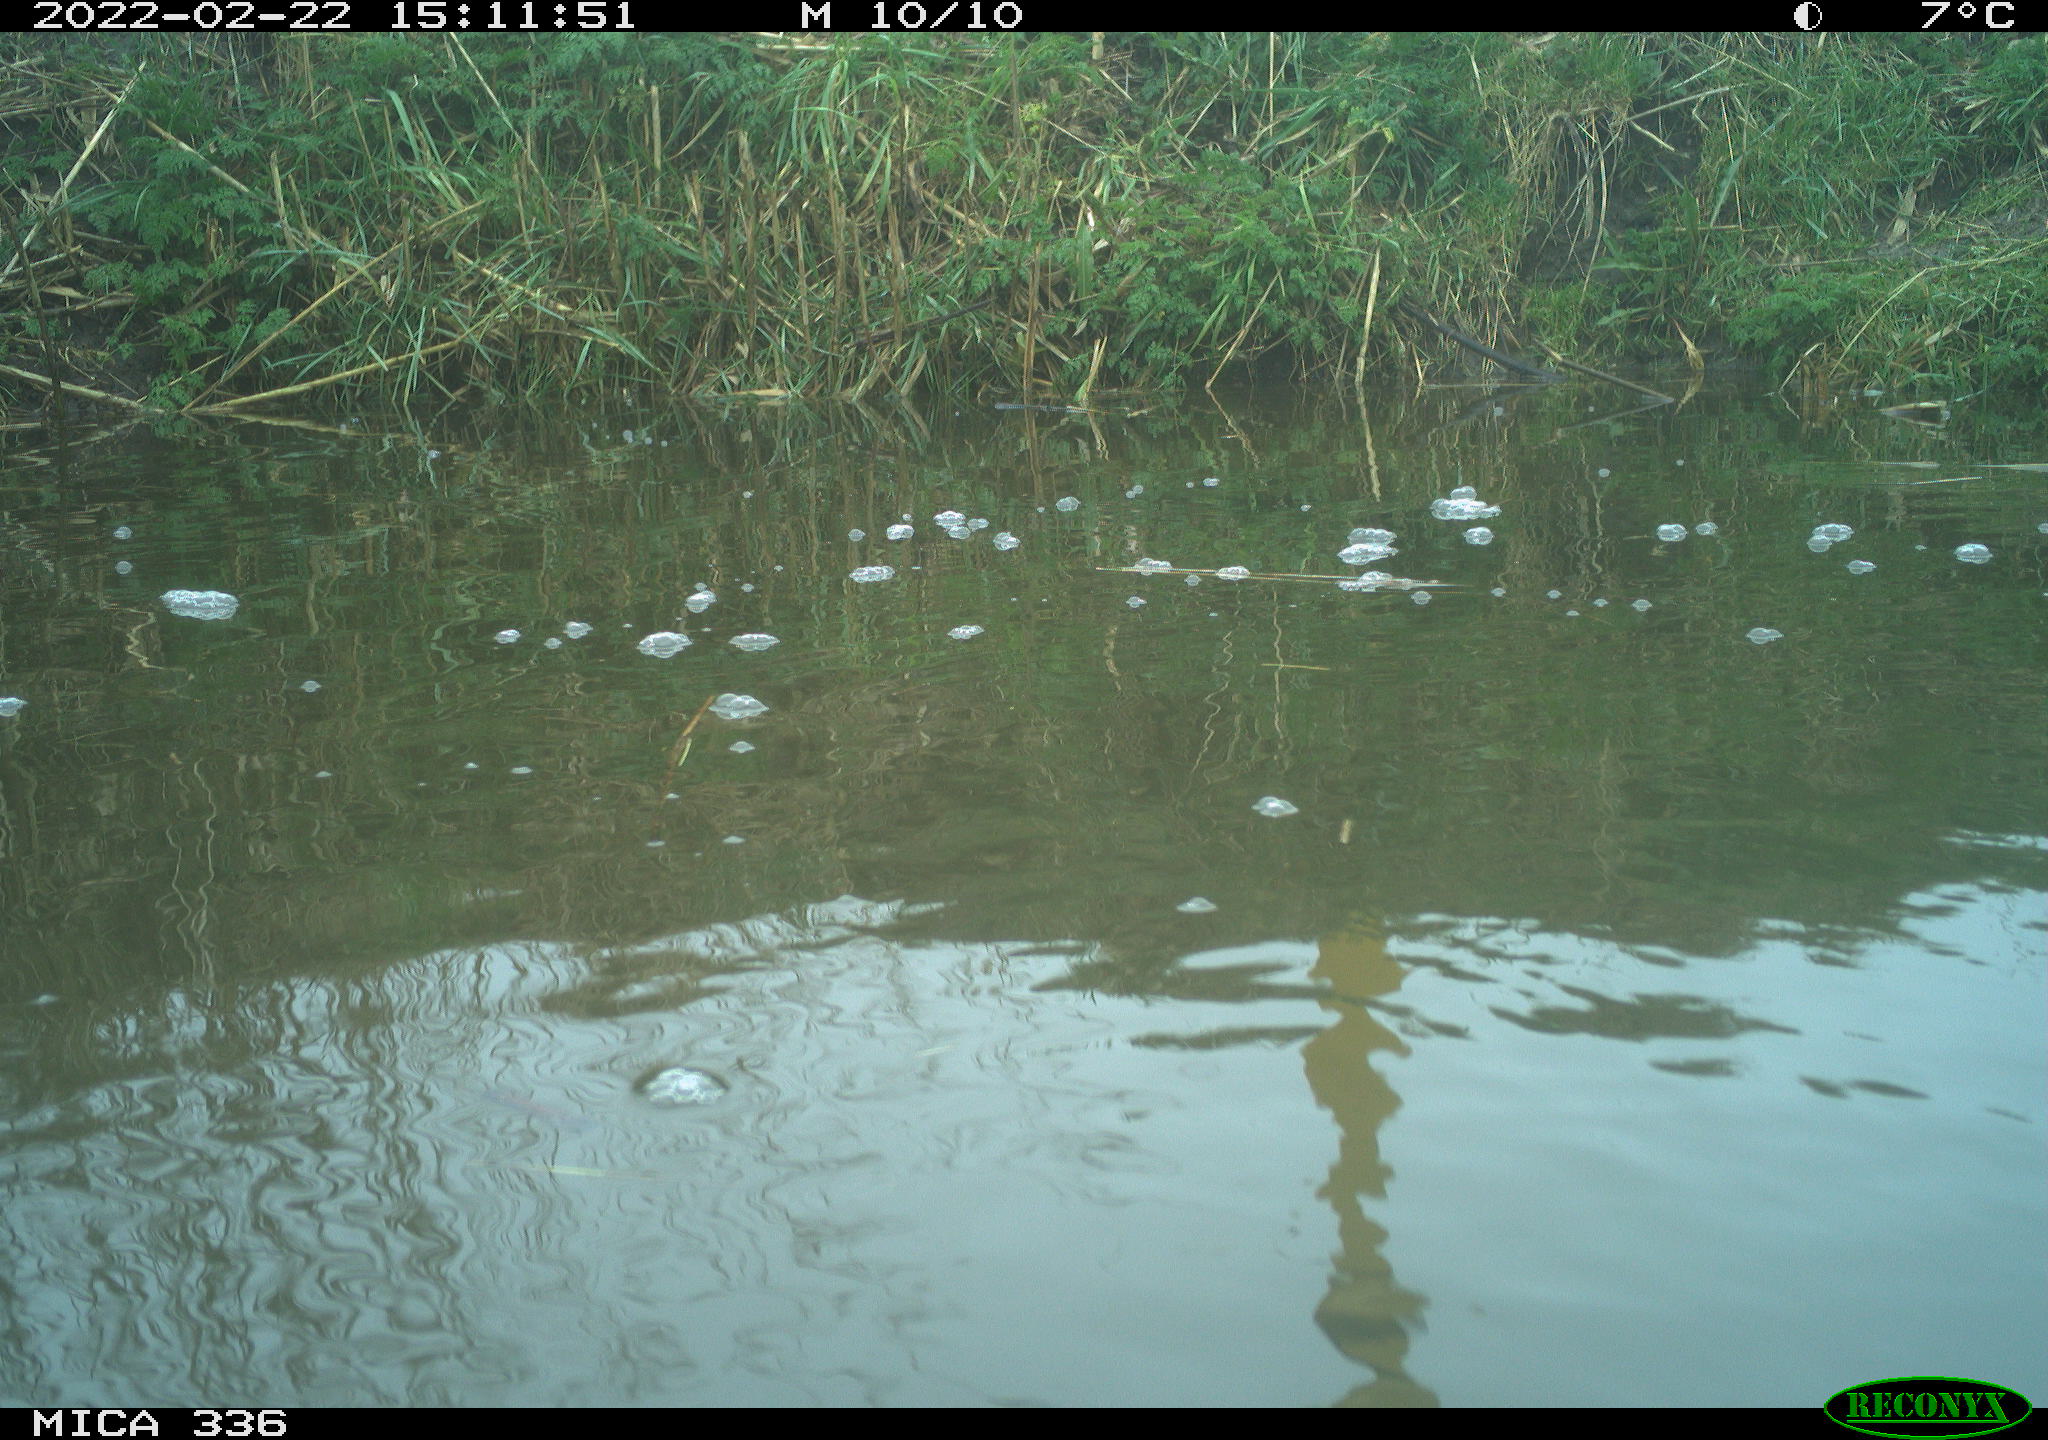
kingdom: Animalia
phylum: Chordata
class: Aves
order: Podicipediformes
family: Podicipedidae
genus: Podiceps
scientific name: Podiceps cristatus
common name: Great crested grebe
